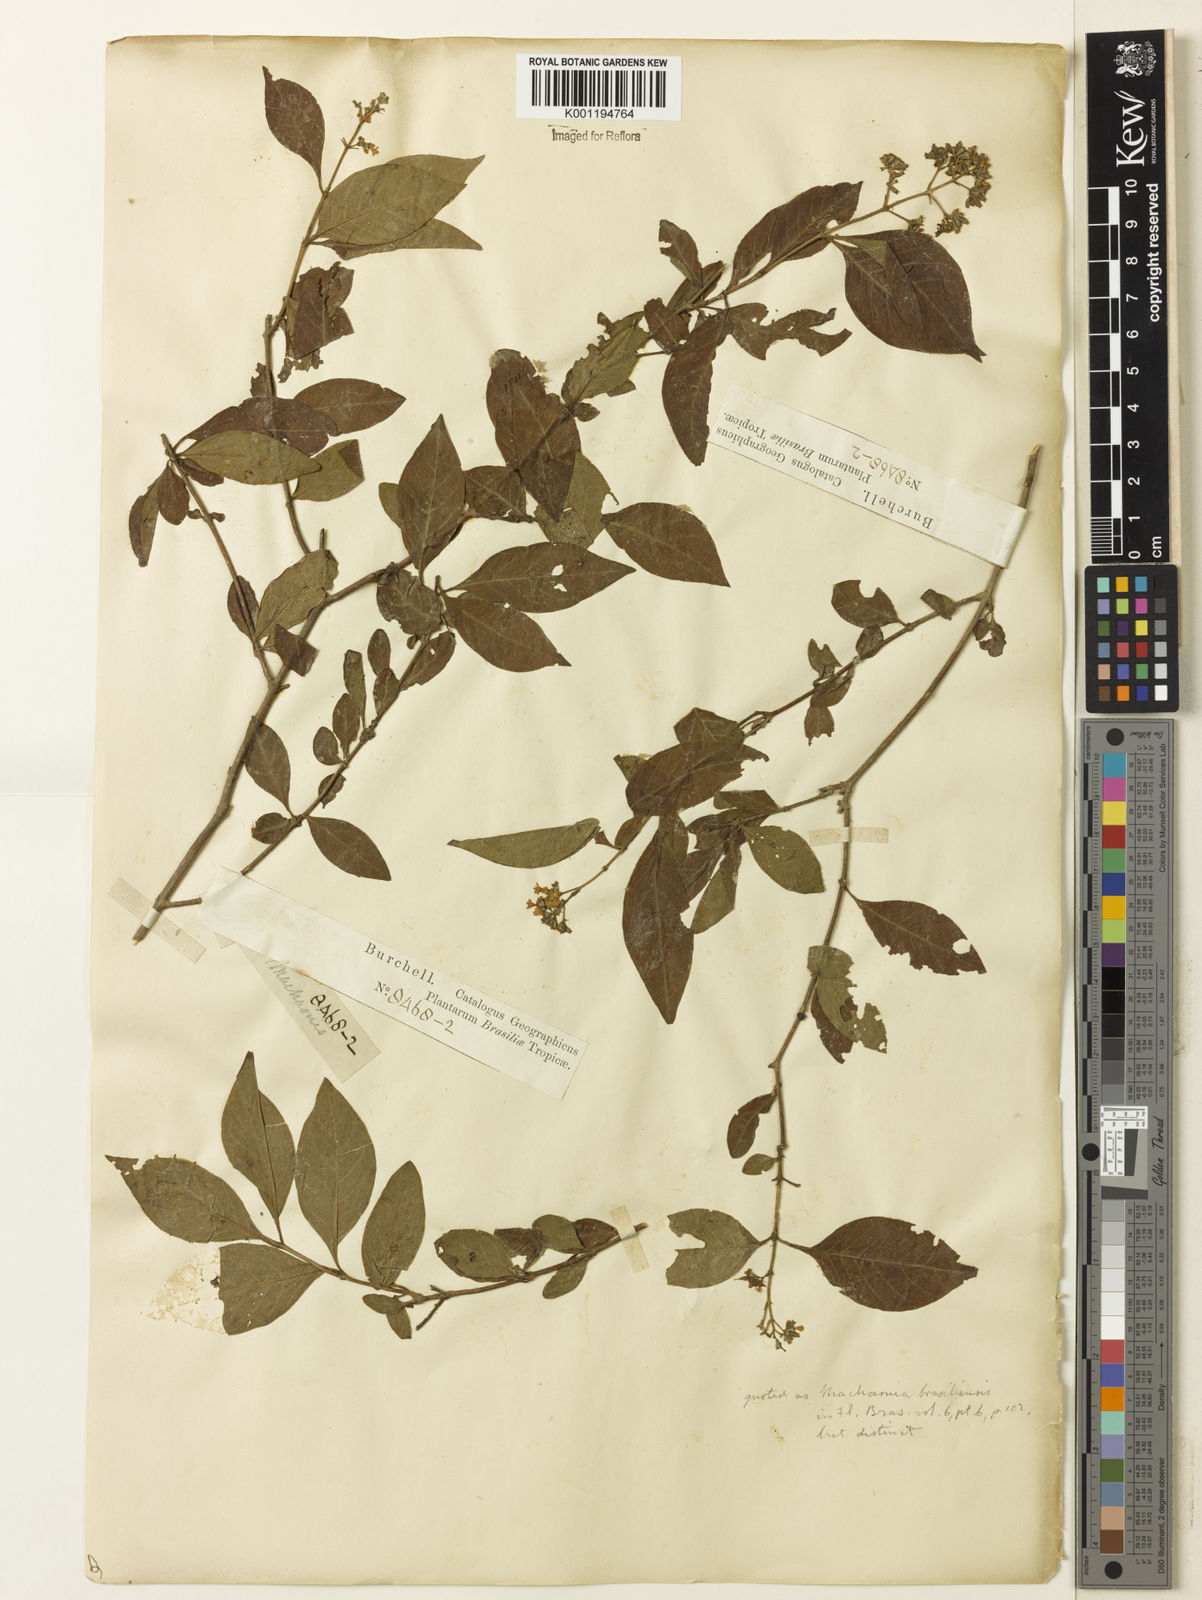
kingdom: Plantae
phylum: Tracheophyta
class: Magnoliopsida
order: Gentianales
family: Rubiaceae
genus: Machaonia
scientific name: Machaonia acuminata
